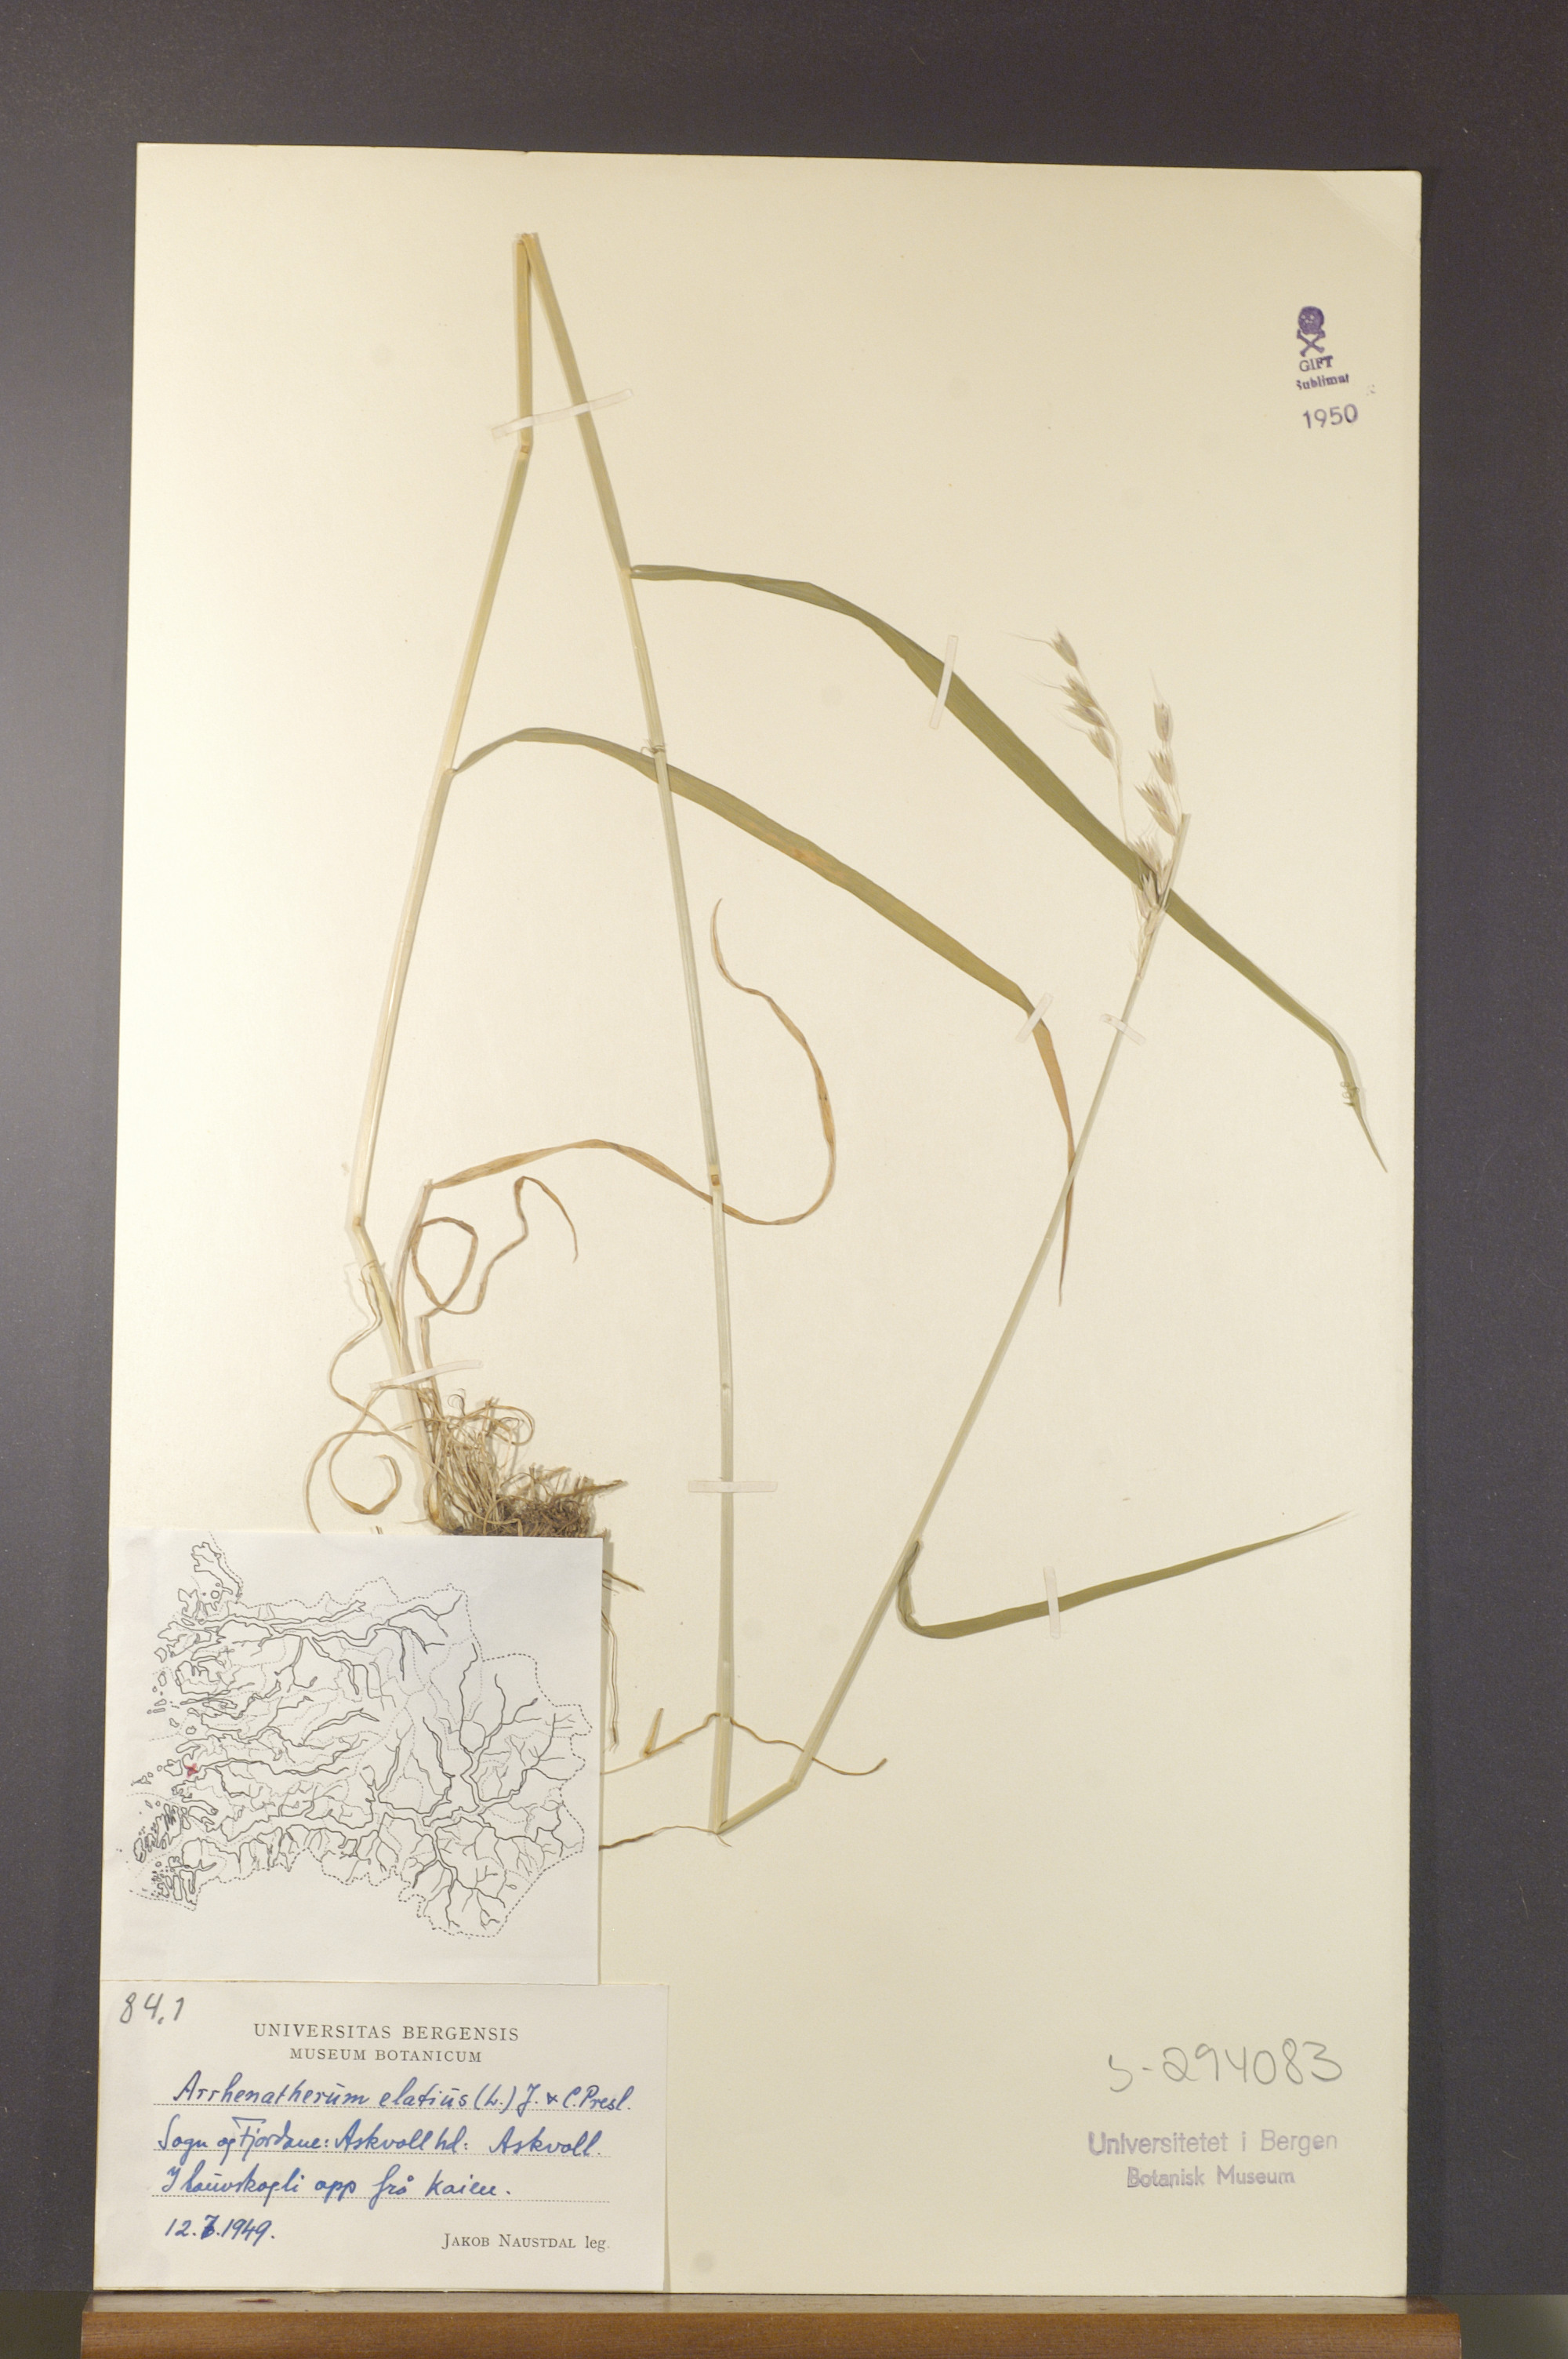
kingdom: Plantae
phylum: Tracheophyta
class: Liliopsida
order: Poales
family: Poaceae
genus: Arrhenatherum
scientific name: Arrhenatherum elatius
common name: Tall oatgrass
